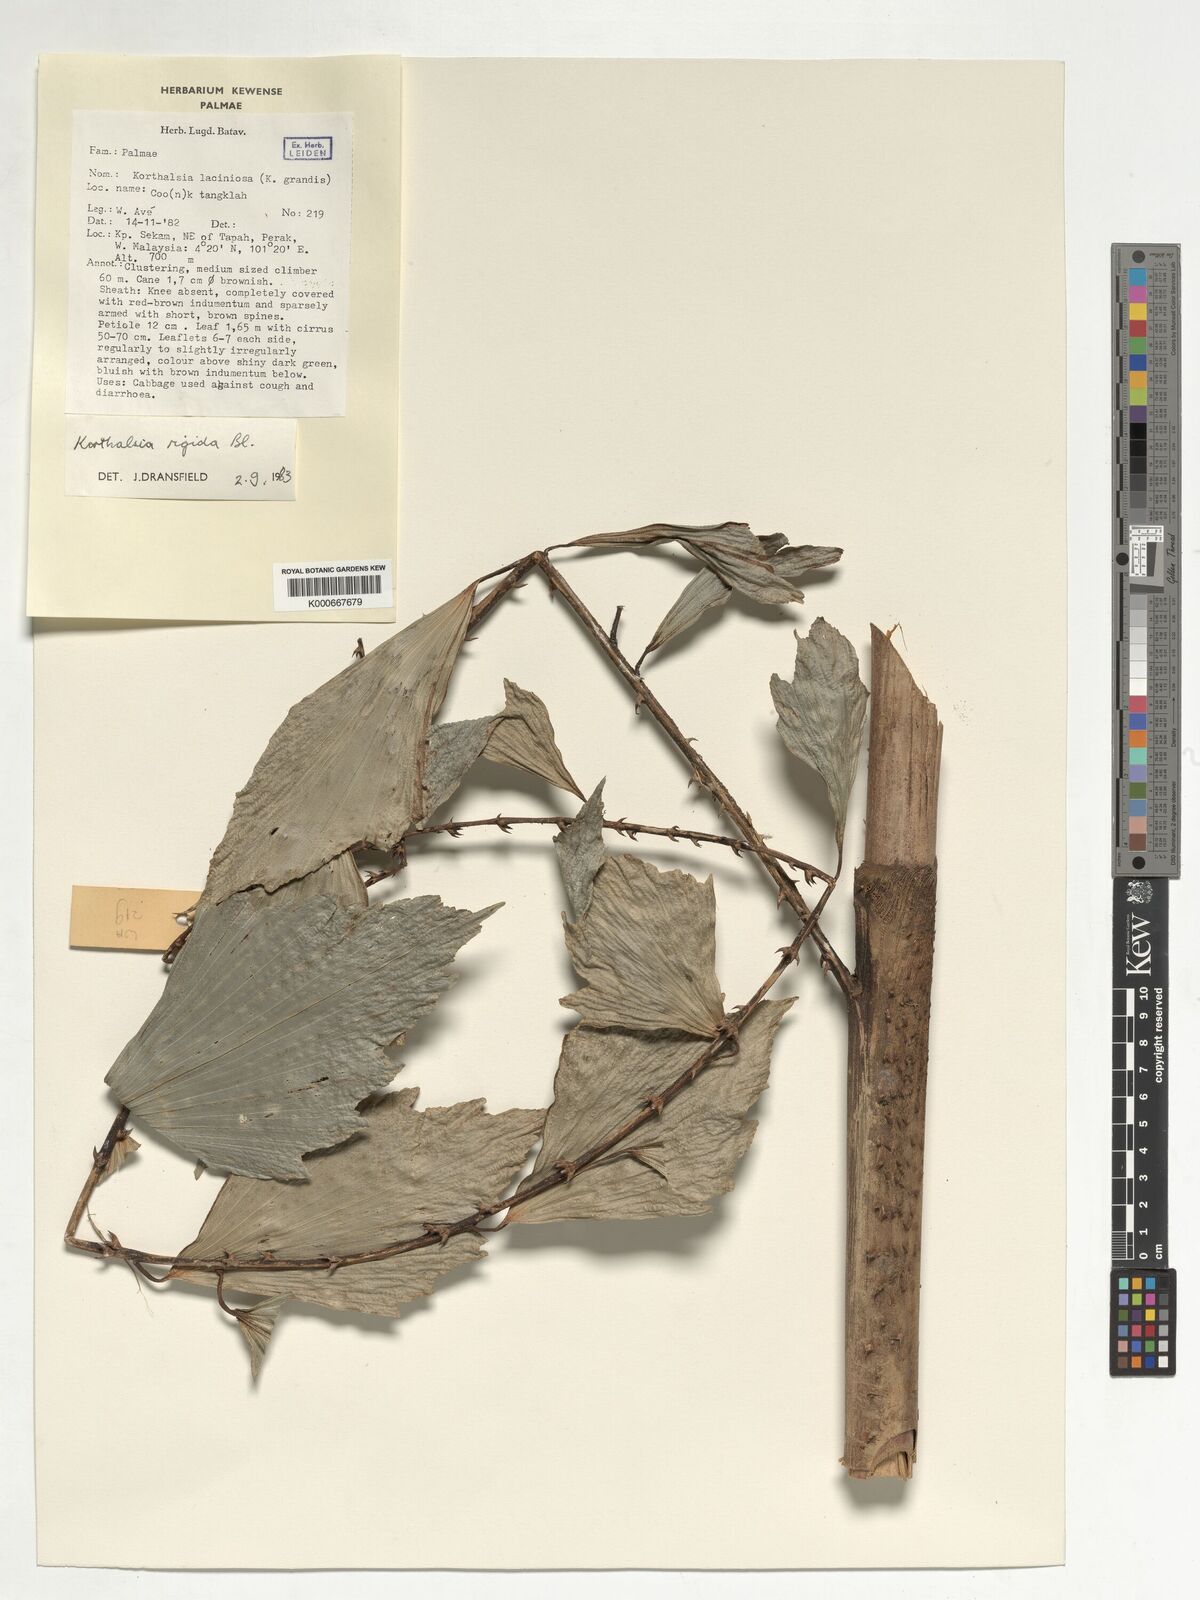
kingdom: Plantae
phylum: Tracheophyta
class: Liliopsida
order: Arecales
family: Arecaceae
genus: Korthalsia
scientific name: Korthalsia rigida
